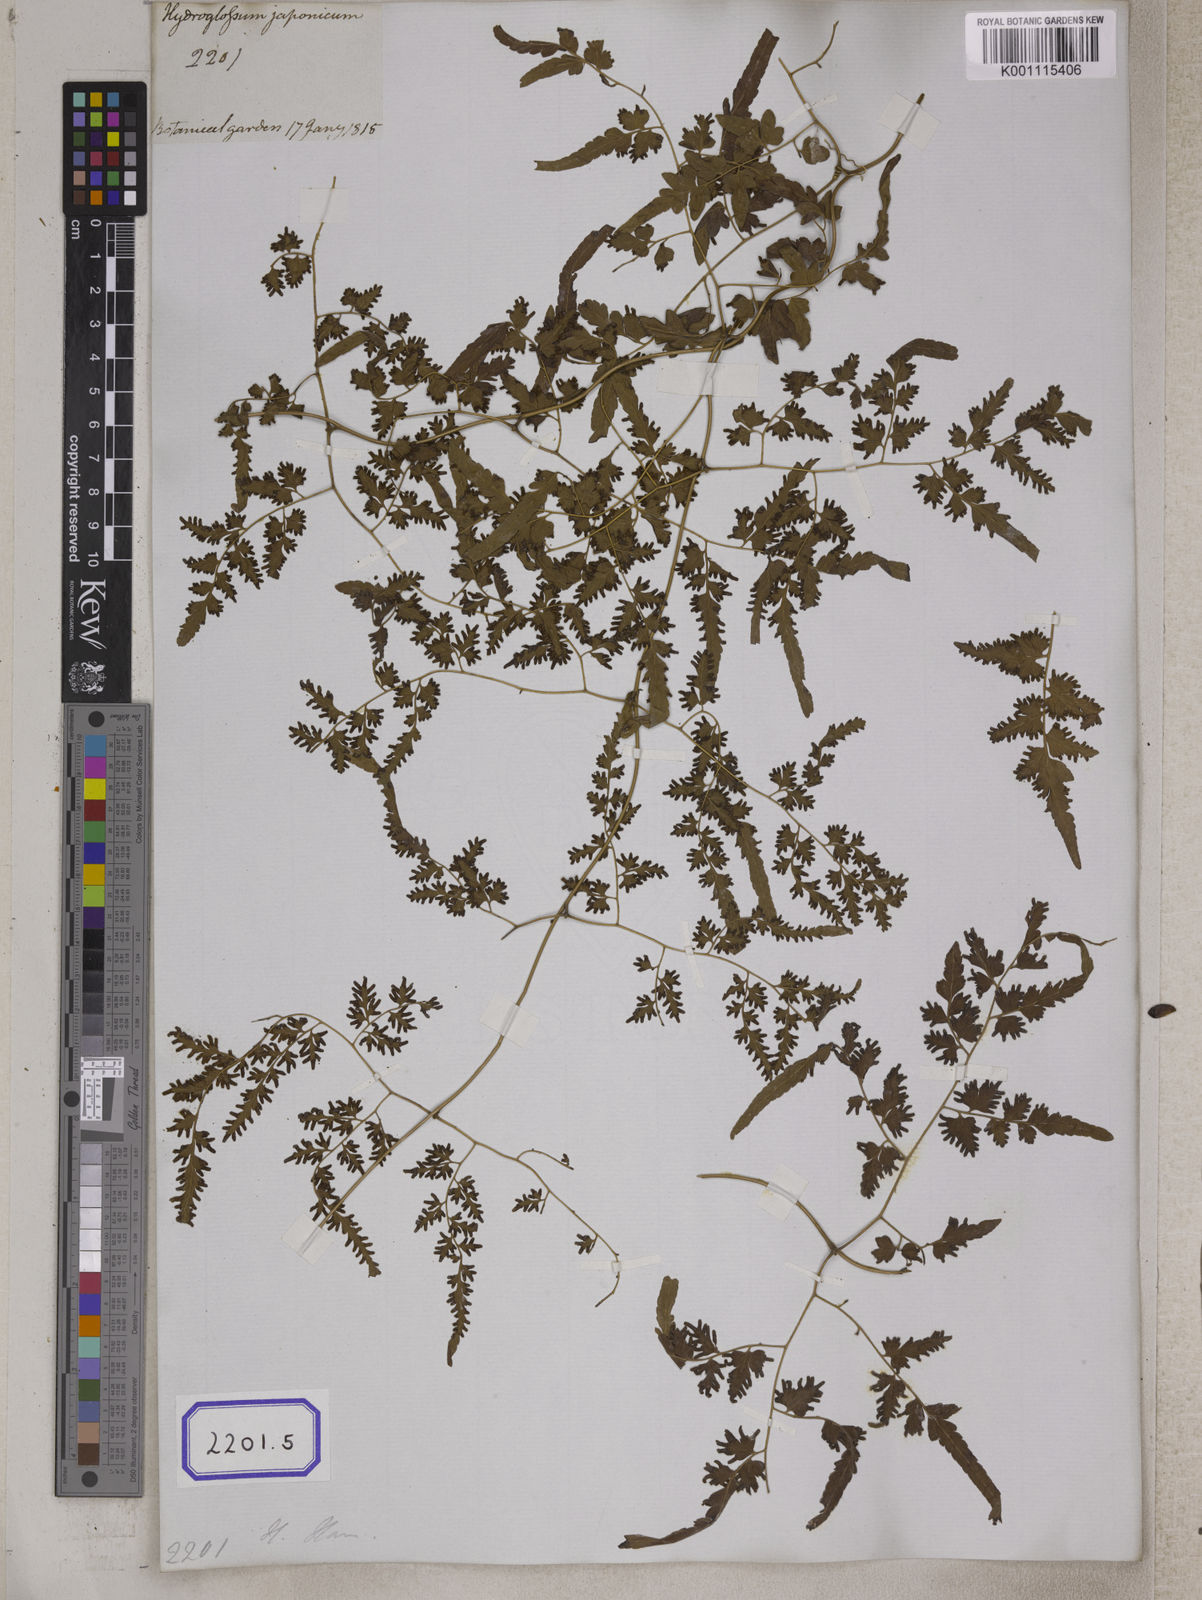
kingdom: Plantae
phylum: Tracheophyta
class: Polypodiopsida
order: Schizaeales
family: Lygodiaceae
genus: Lygodium
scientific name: Lygodium
